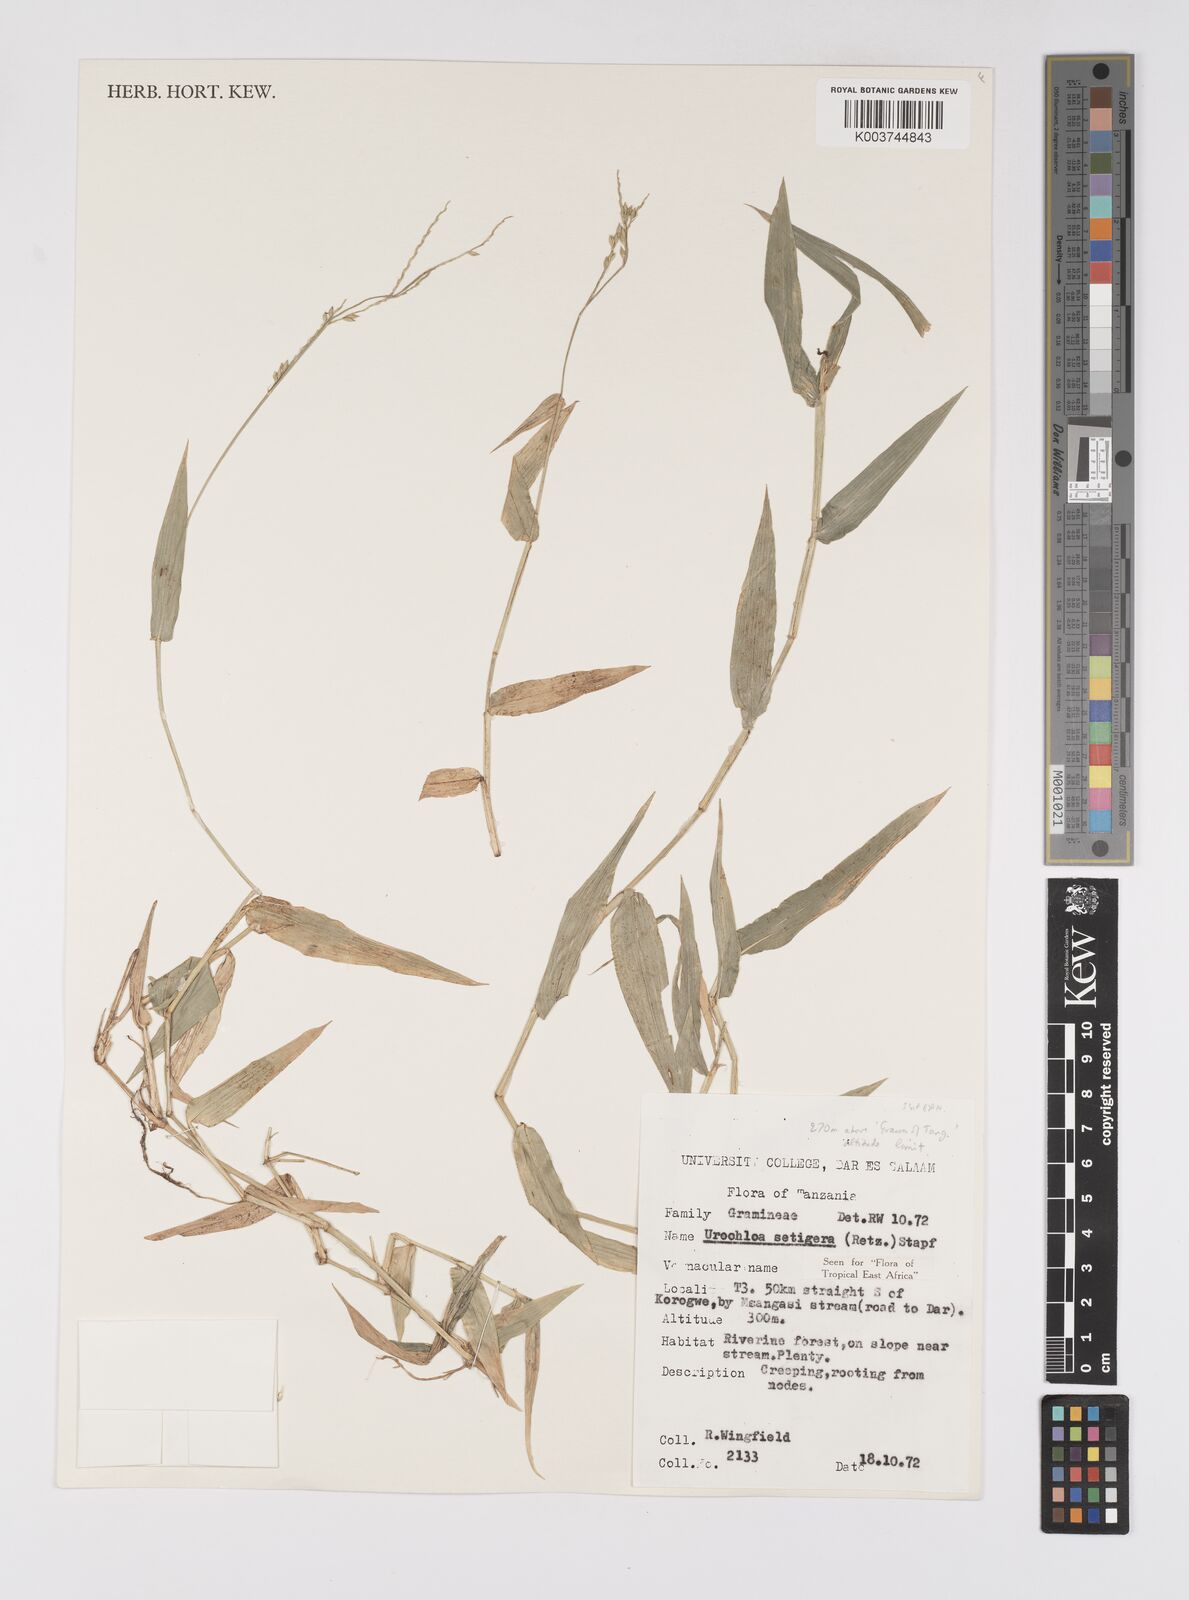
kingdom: Plantae
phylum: Tracheophyta
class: Liliopsida
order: Poales
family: Poaceae
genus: Urochloa
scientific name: Urochloa trichopodioides
